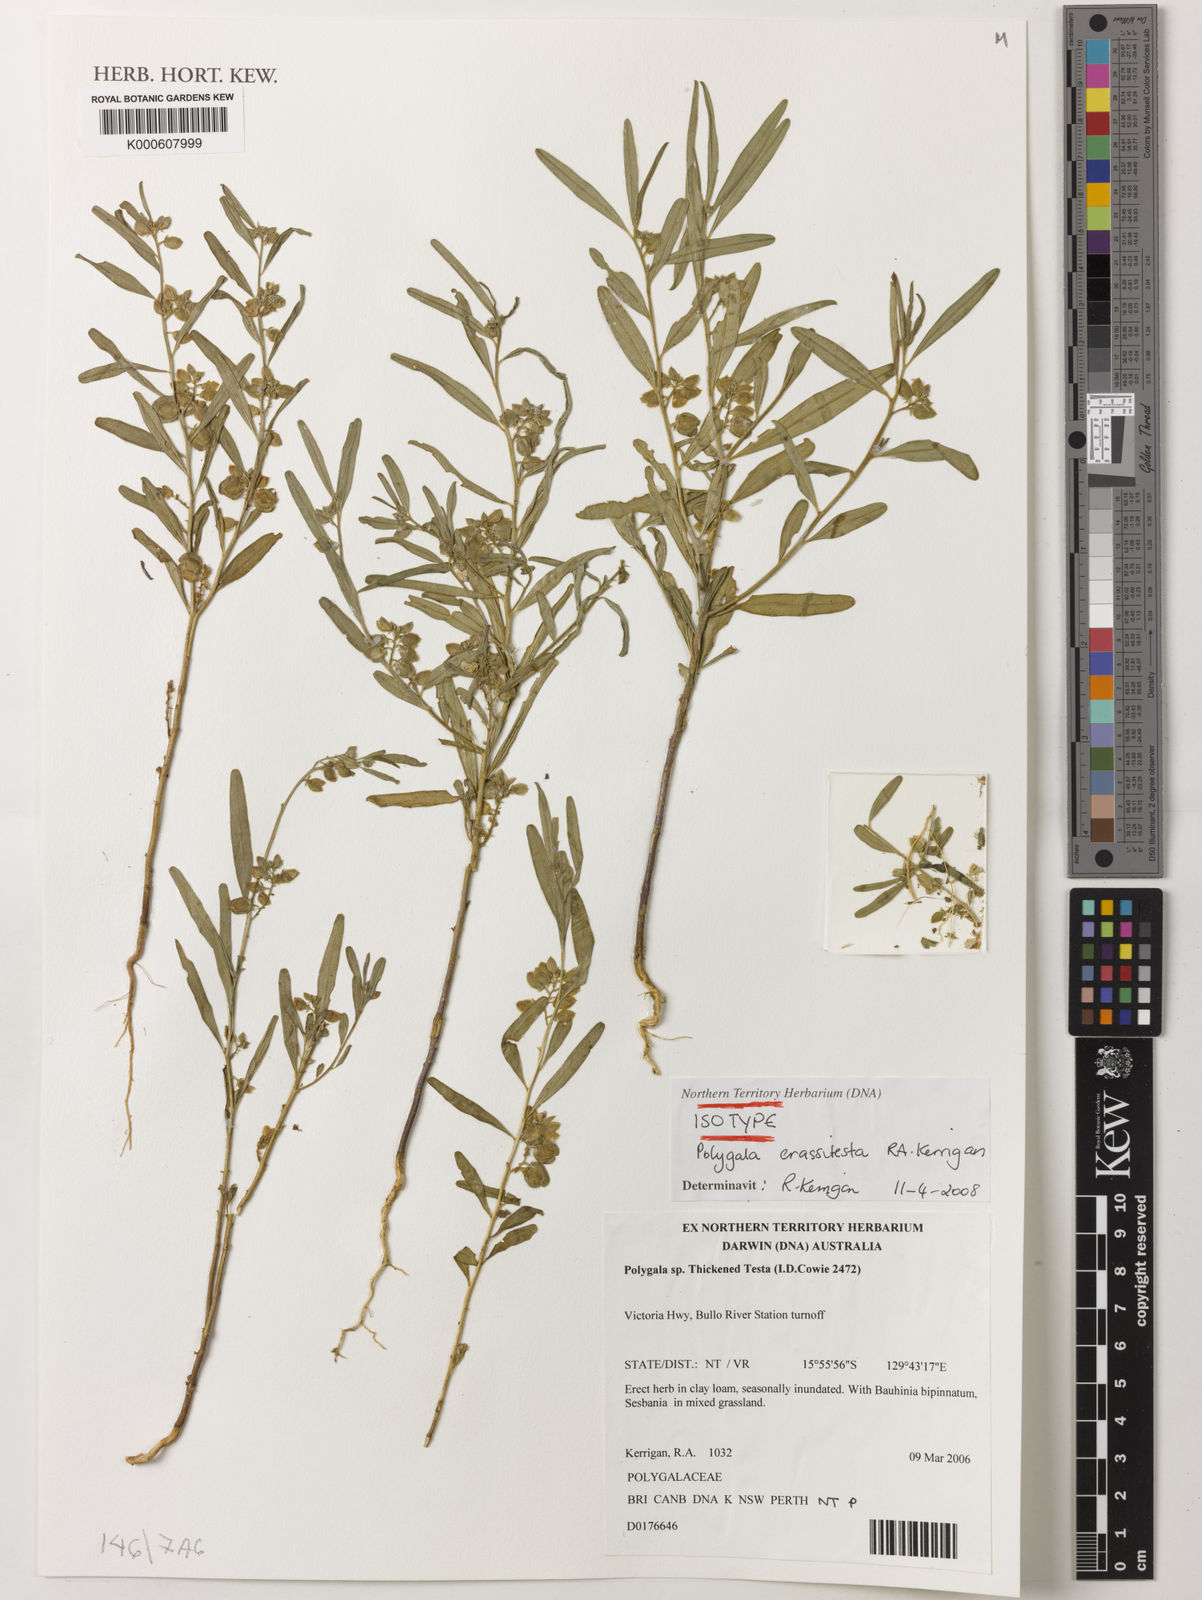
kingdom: Plantae
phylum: Tracheophyta
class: Magnoliopsida
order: Fabales
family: Polygalaceae
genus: Polygala
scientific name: Polygala crassitesta
